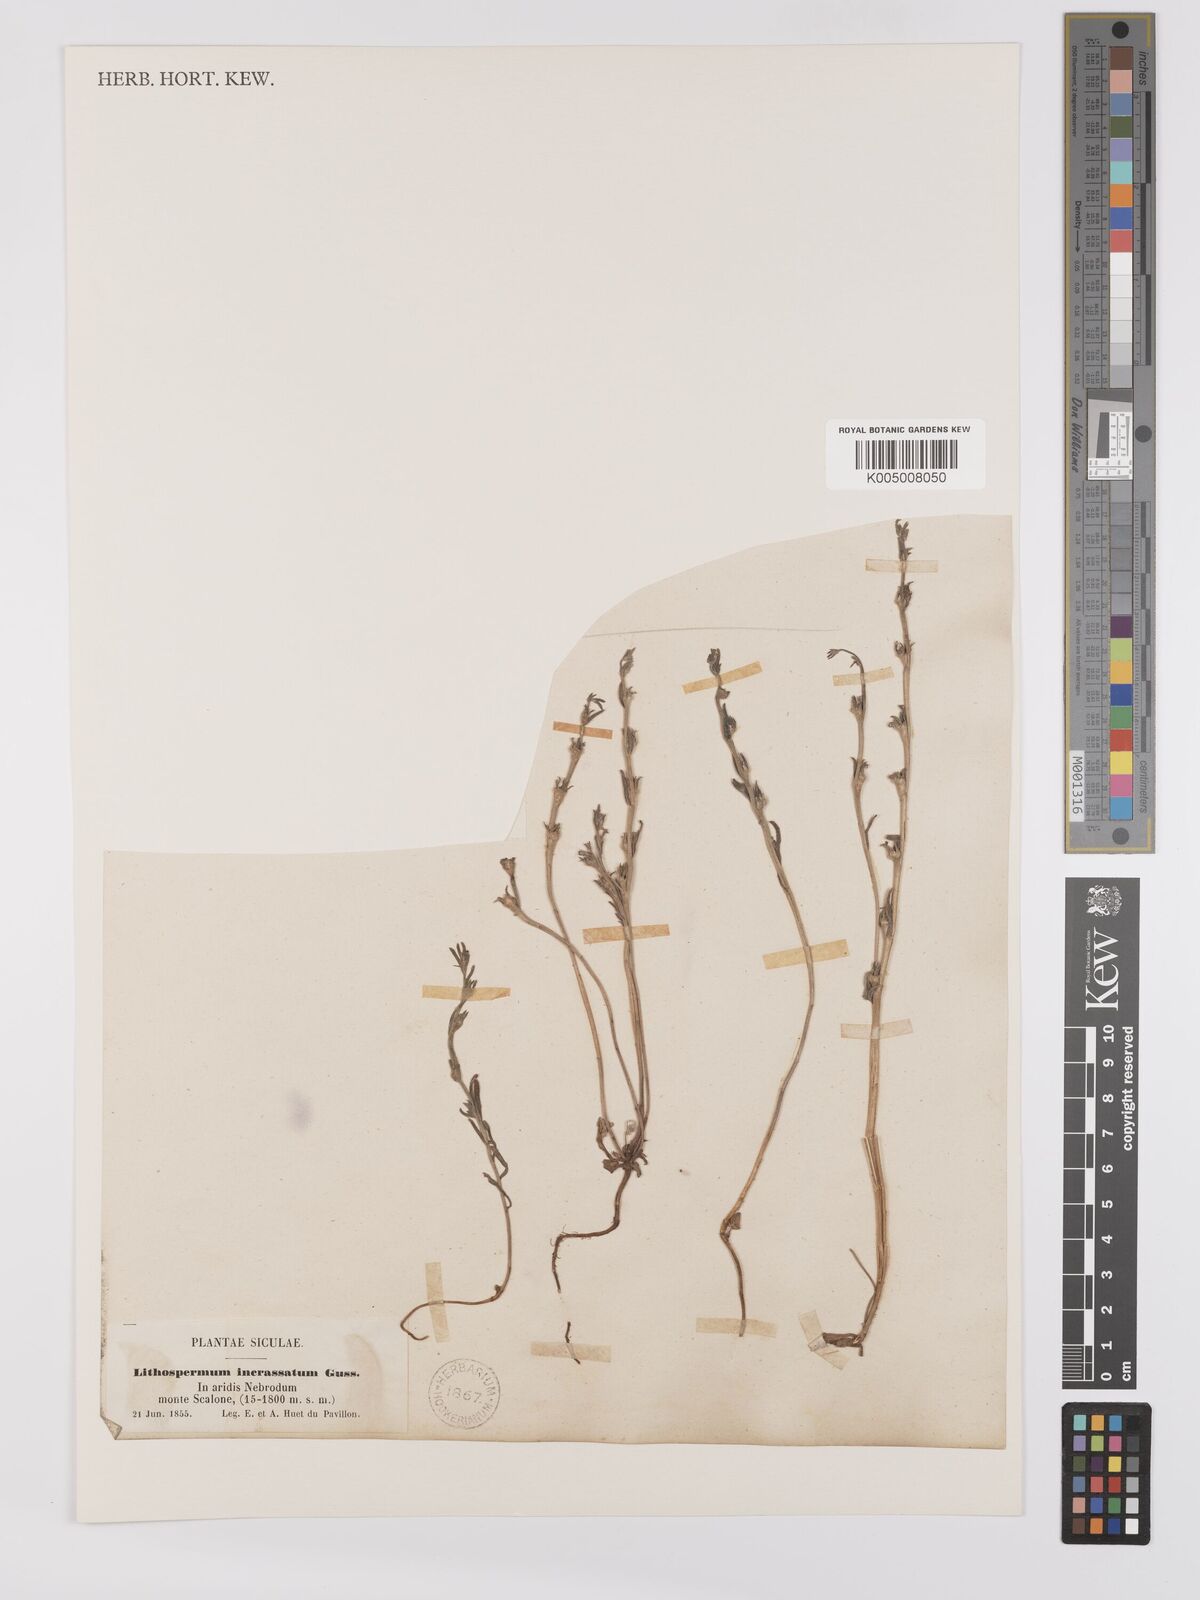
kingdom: Plantae
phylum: Tracheophyta
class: Magnoliopsida
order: Boraginales
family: Boraginaceae
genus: Buglossoides
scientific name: Buglossoides incrassata
